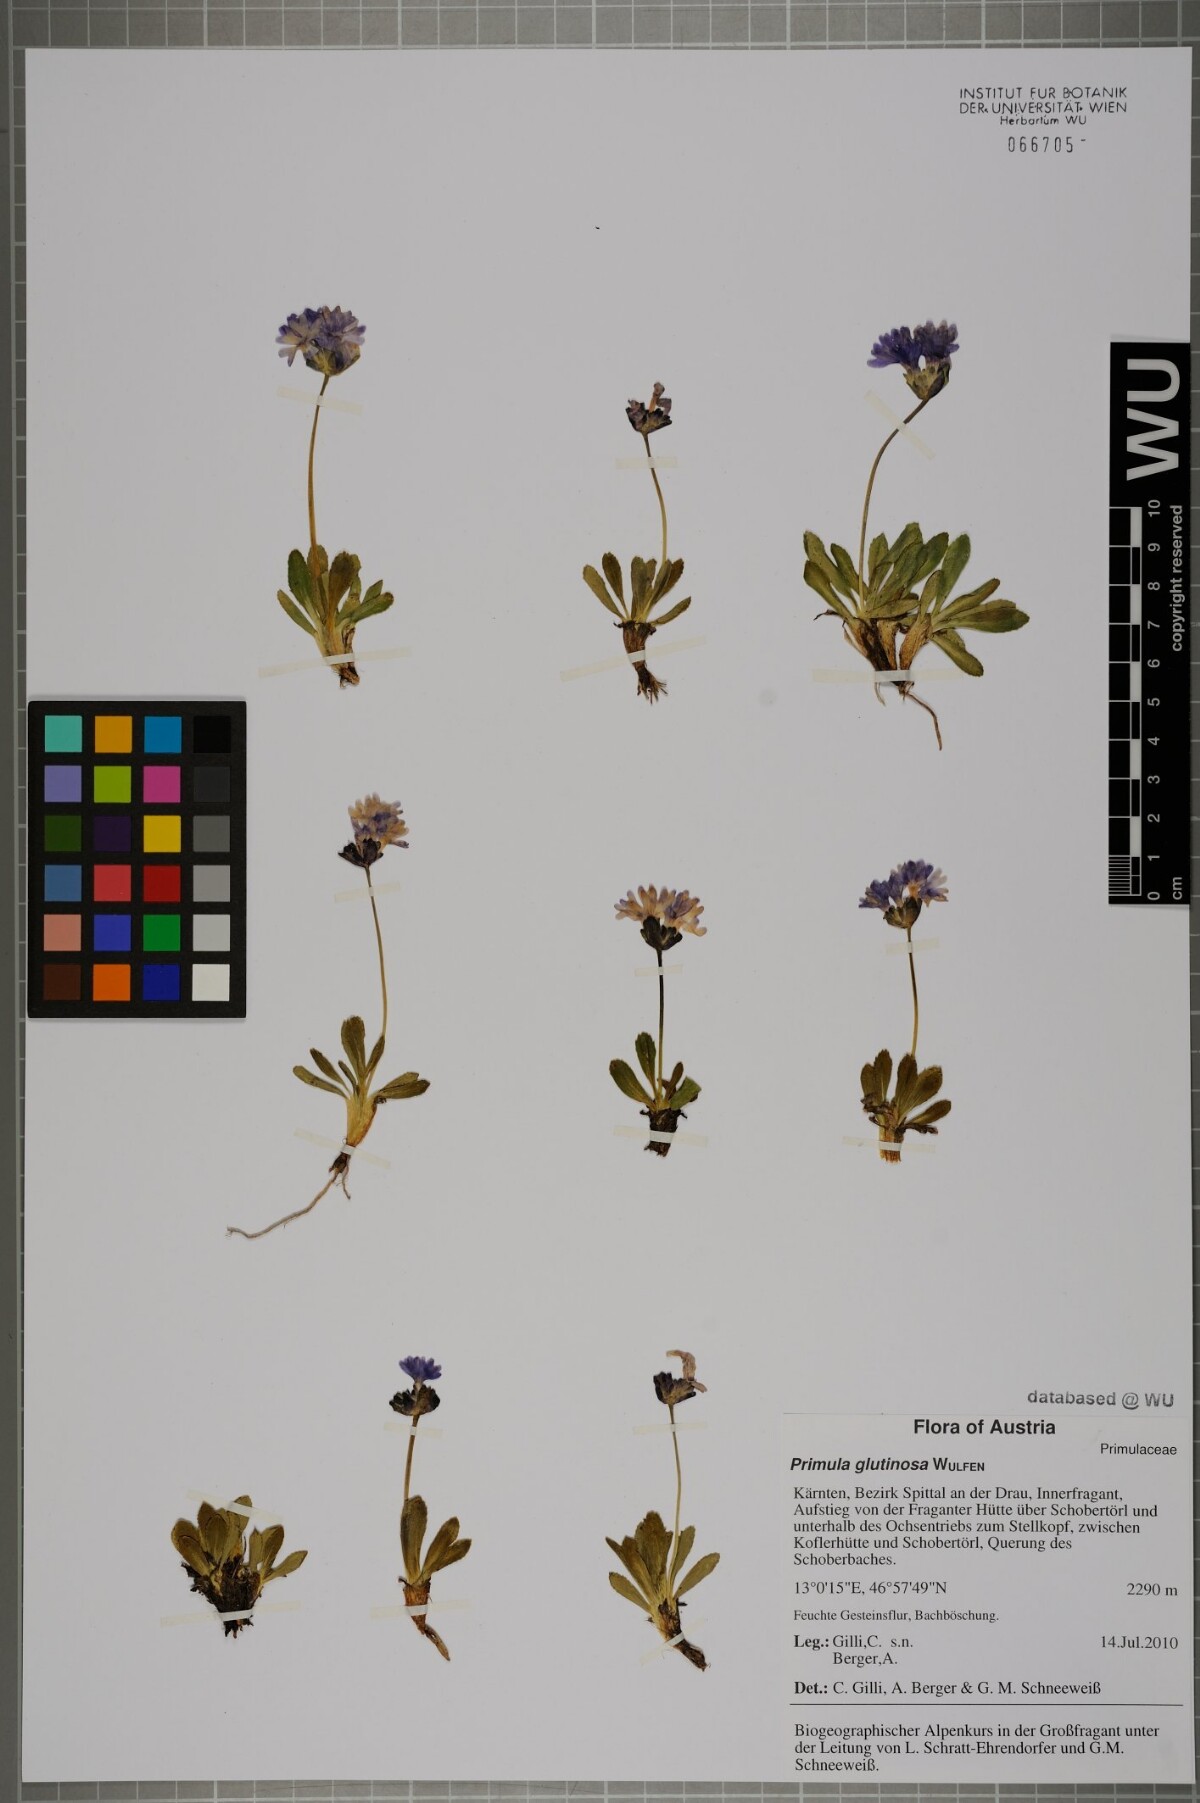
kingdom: Plantae
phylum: Tracheophyta
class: Magnoliopsida
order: Ericales
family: Primulaceae
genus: Primula
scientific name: Primula glutinosa
